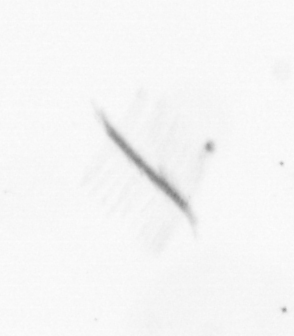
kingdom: Chromista
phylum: Ochrophyta
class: Bacillariophyceae
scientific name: Bacillariophyceae
